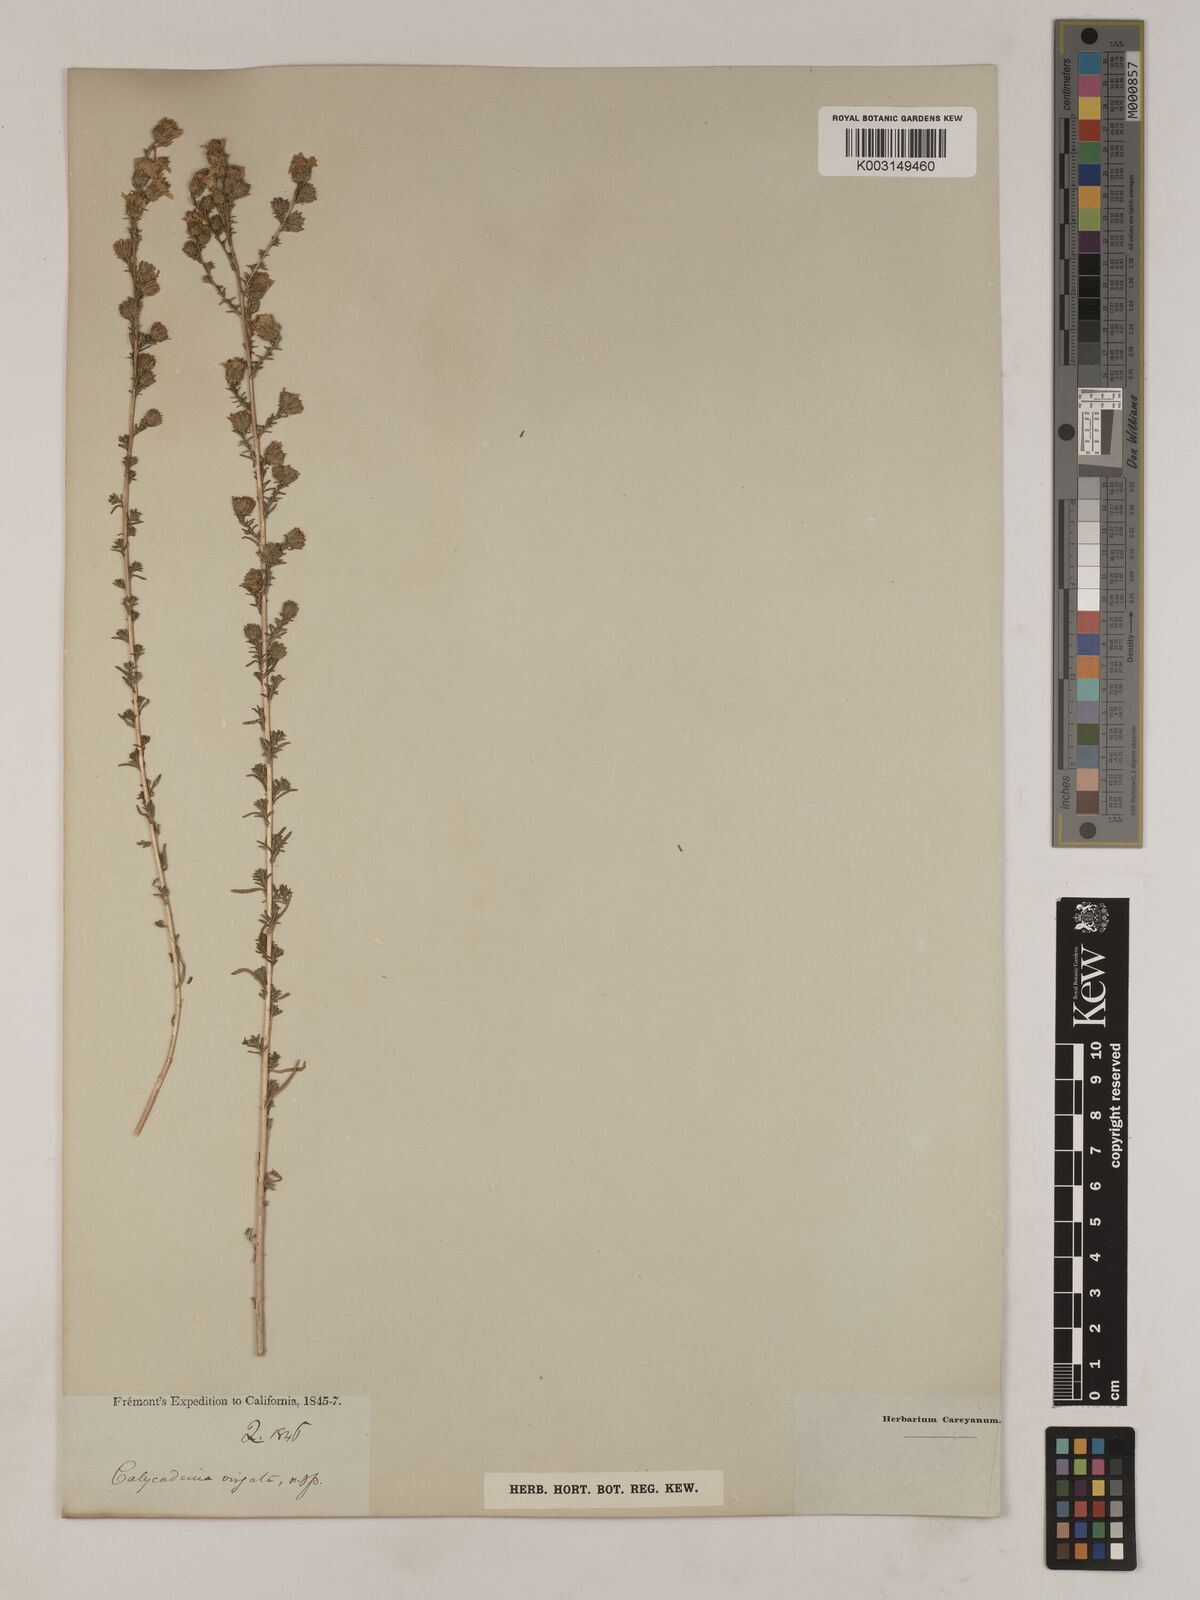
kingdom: Plantae
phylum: Tracheophyta
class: Magnoliopsida
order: Asterales
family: Asteraceae
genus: Holocarpha
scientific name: Holocarpha virgata
